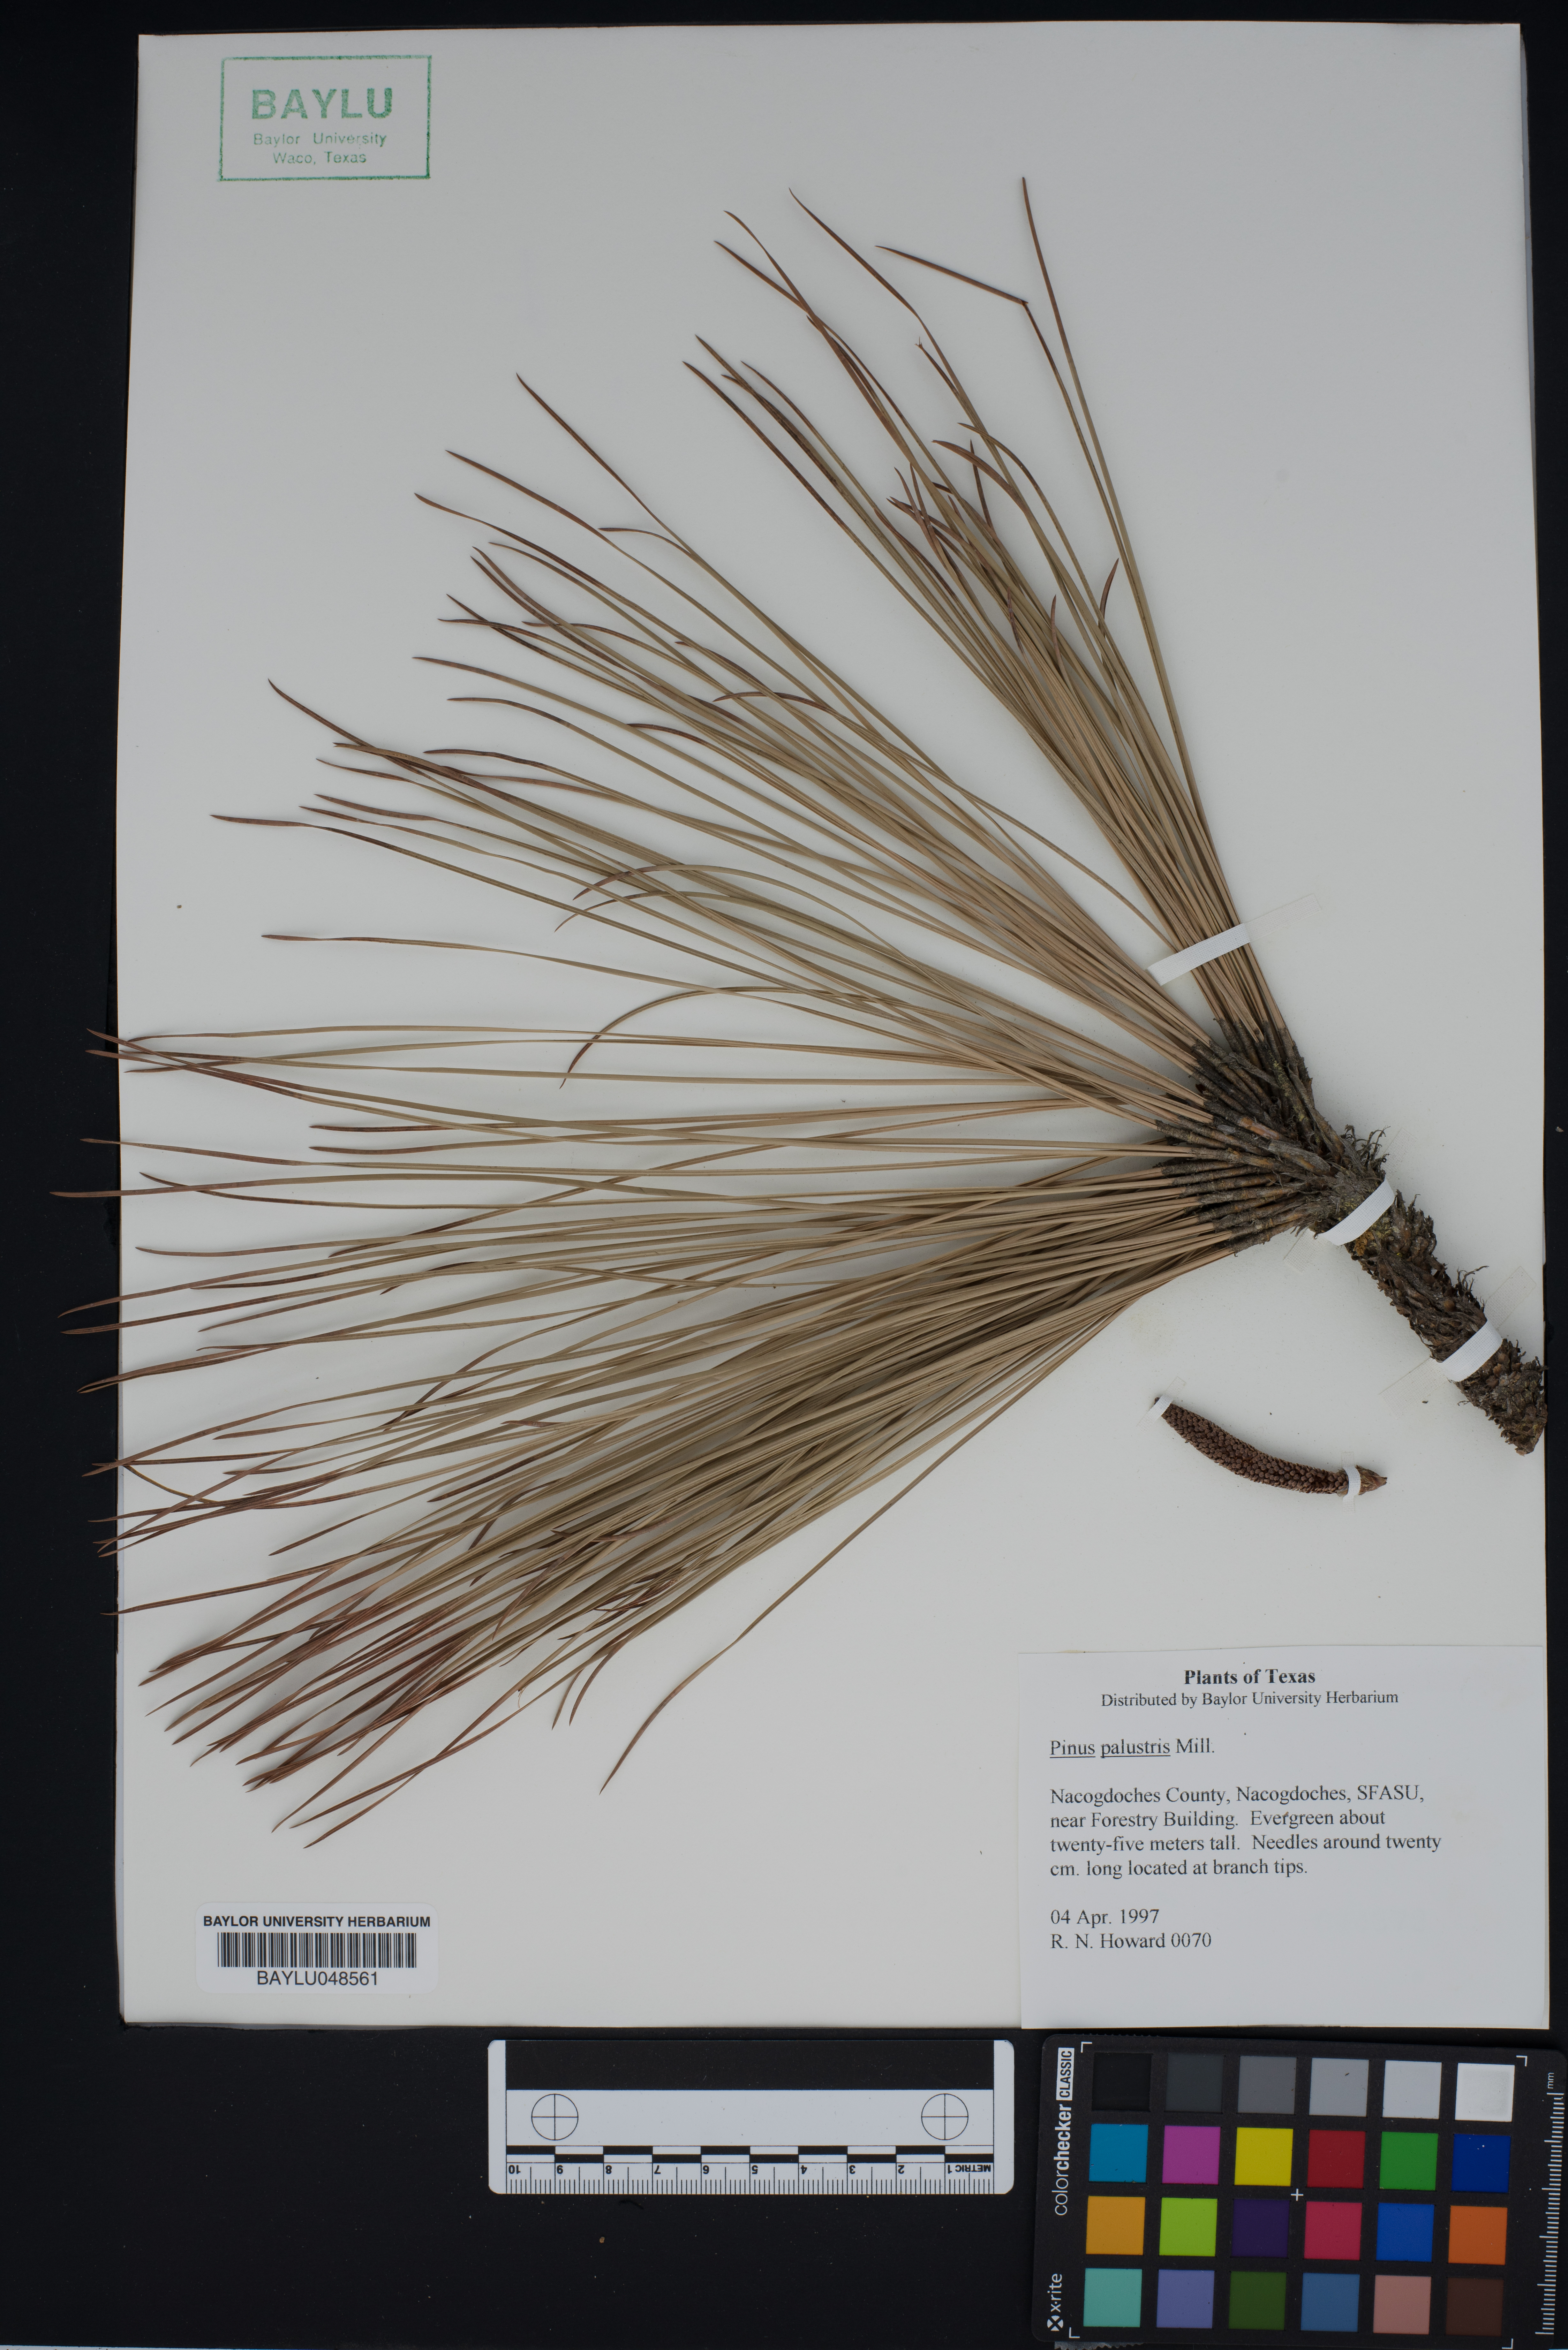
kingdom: Plantae
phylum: Tracheophyta
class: Pinopsida
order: Pinales
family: Pinaceae
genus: Pinus
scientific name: Pinus palustris
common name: Longleaf pine
